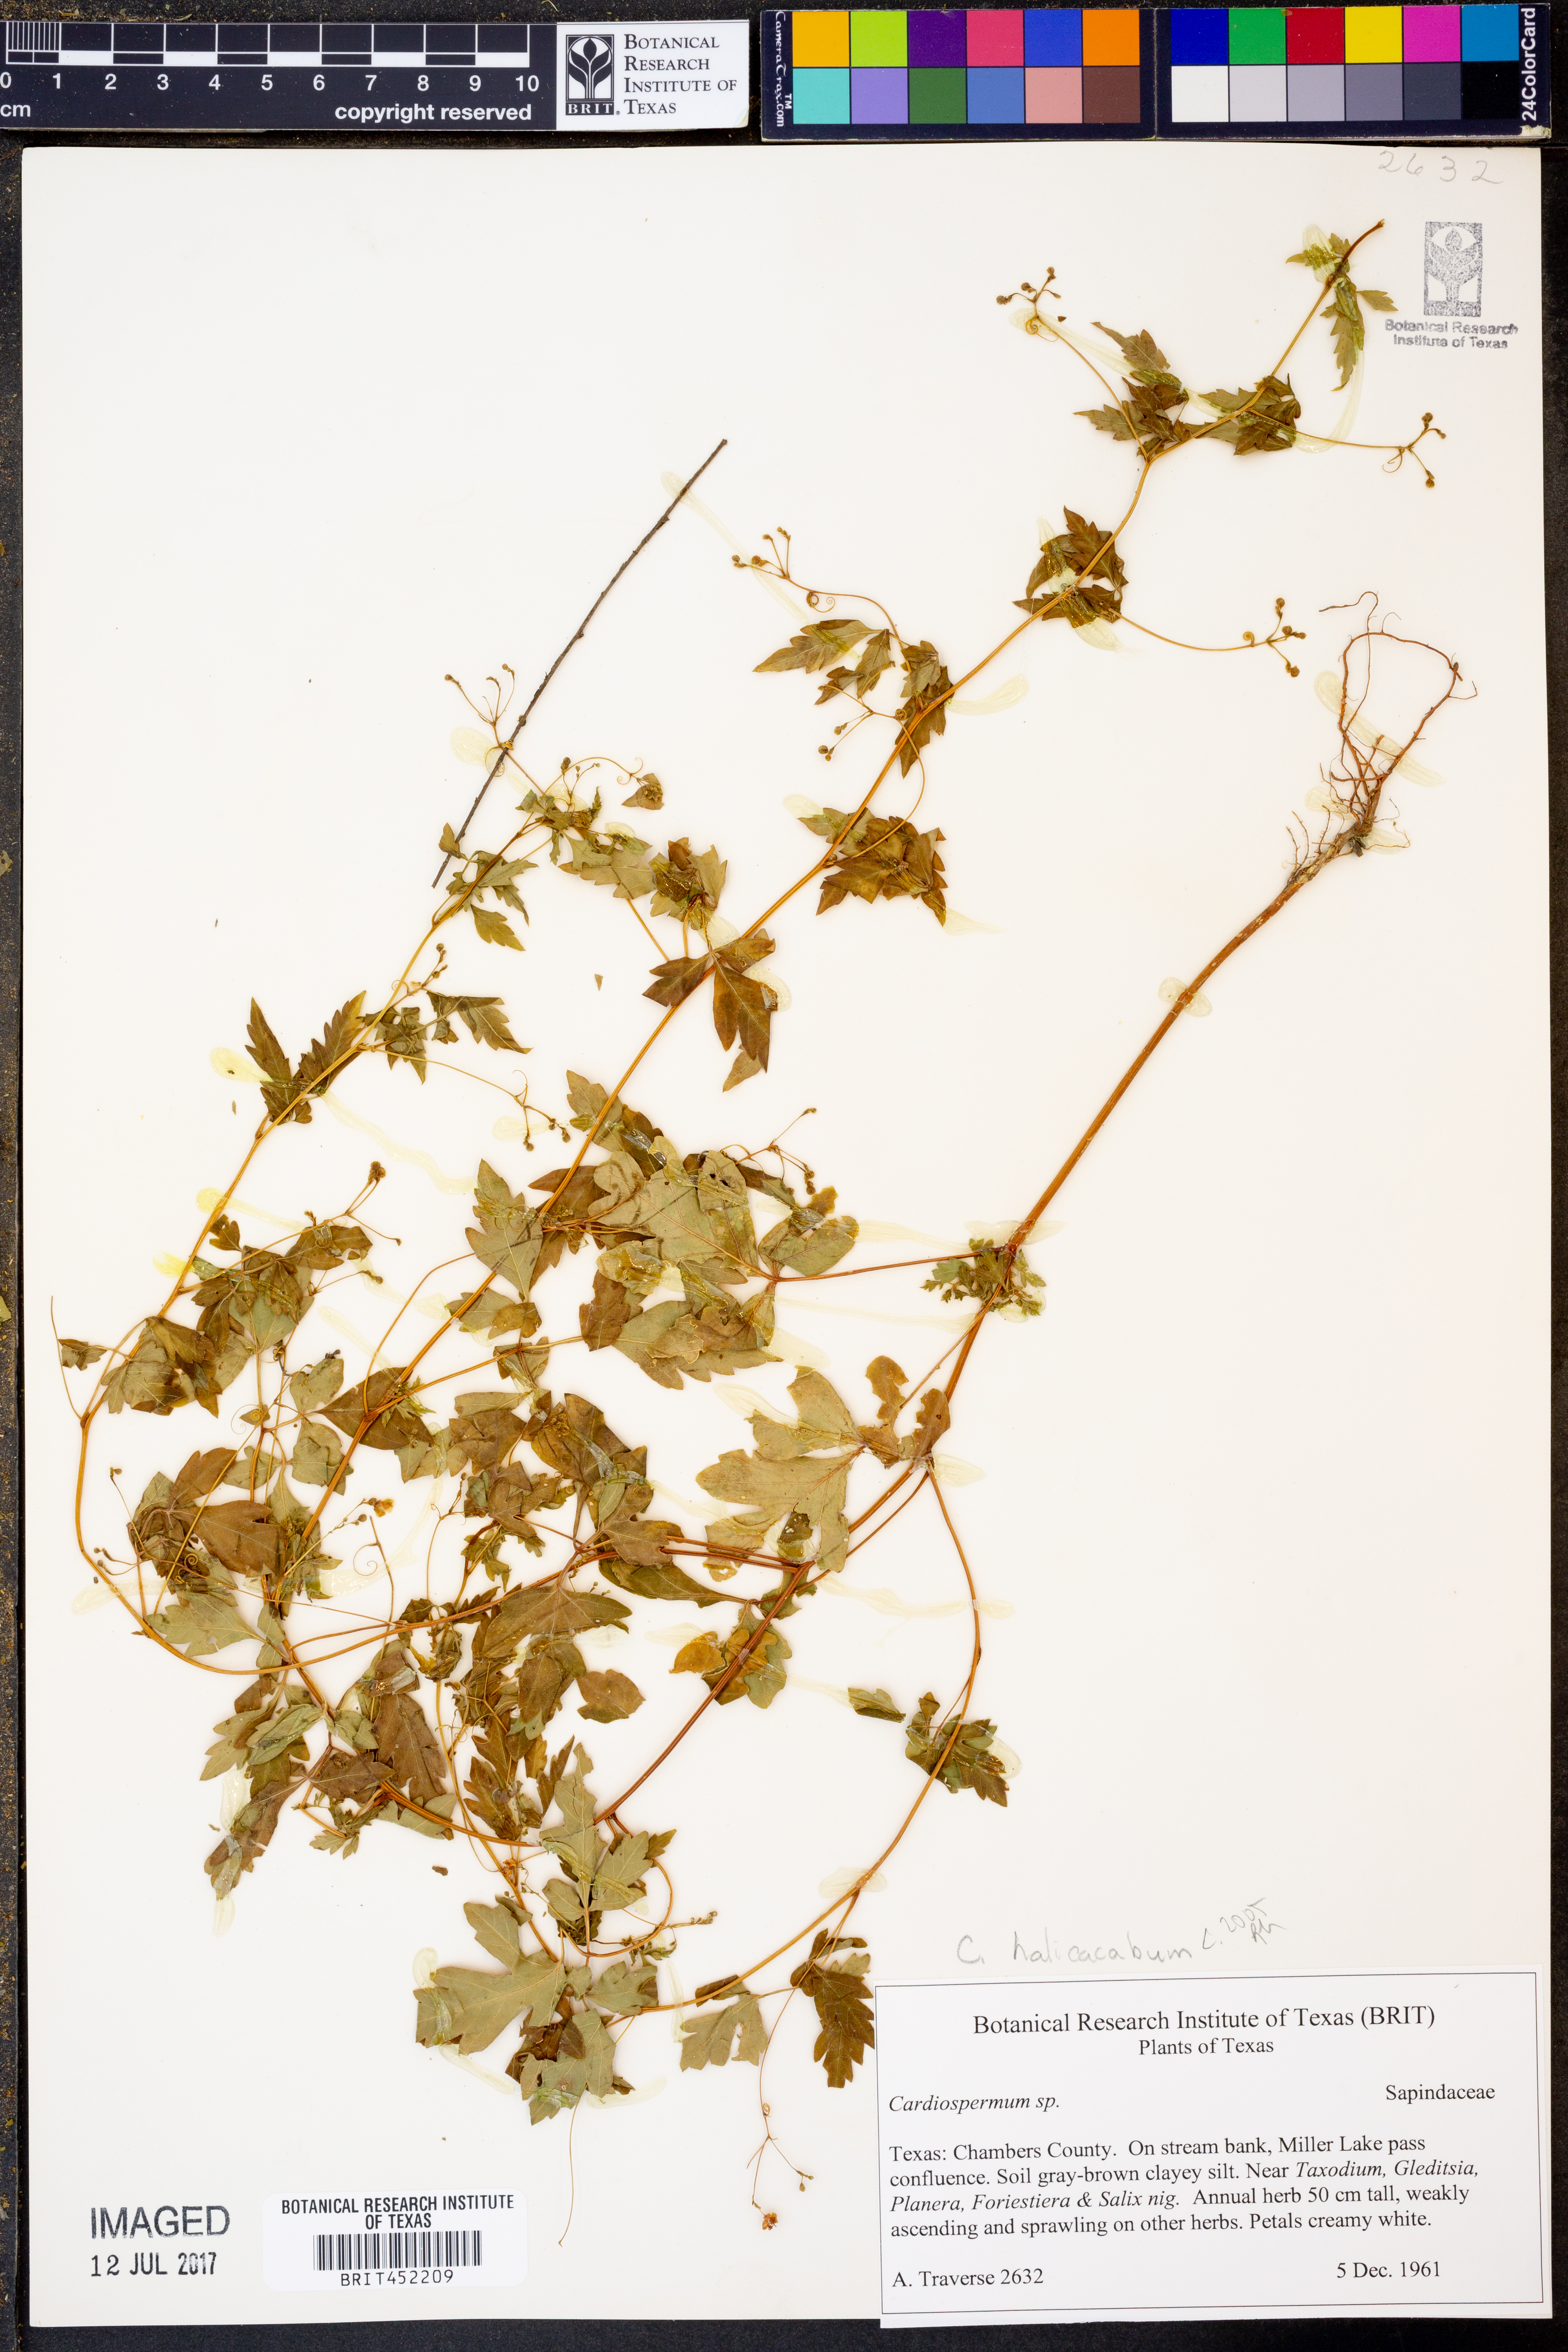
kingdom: Plantae
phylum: Tracheophyta
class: Magnoliopsida
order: Sapindales
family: Sapindaceae
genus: Cardiospermum
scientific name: Cardiospermum
